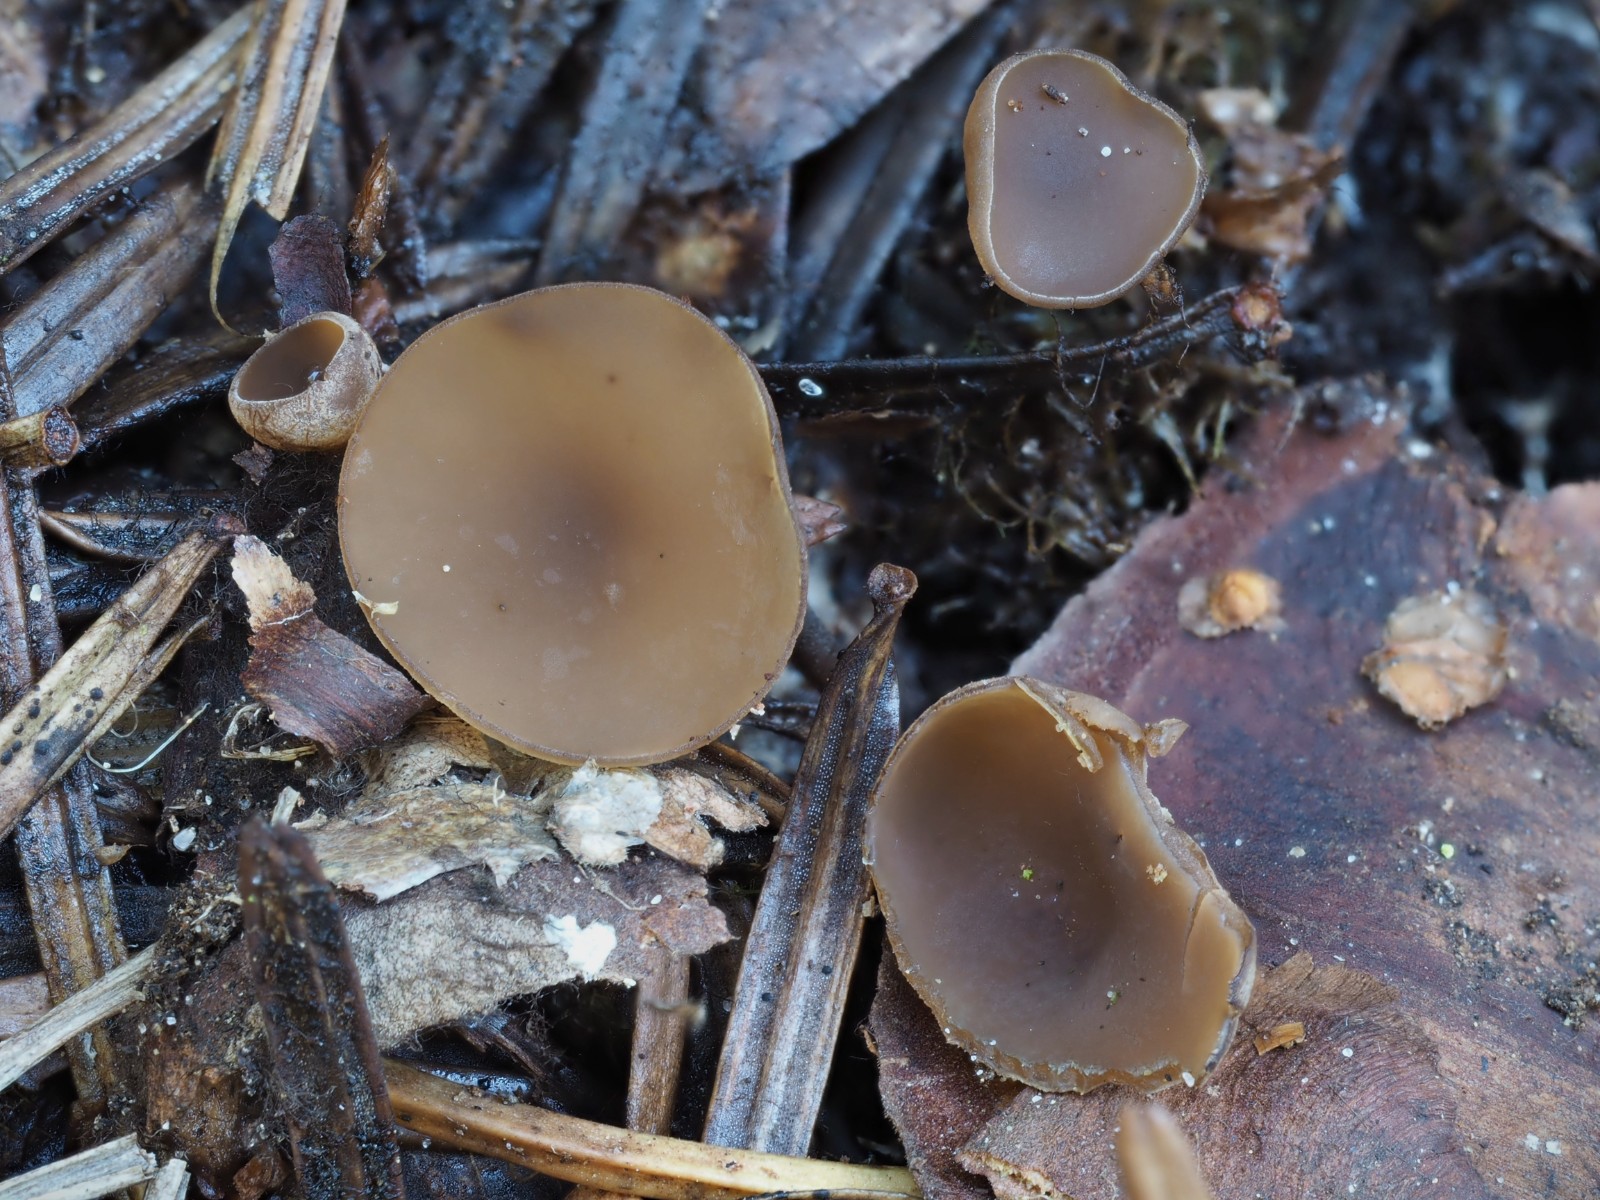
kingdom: Fungi
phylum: Ascomycota
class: Leotiomycetes
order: Helotiales
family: Sclerotiniaceae
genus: Ciboria
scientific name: Ciboria rufofusca
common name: kogleskæl-knoldskive
